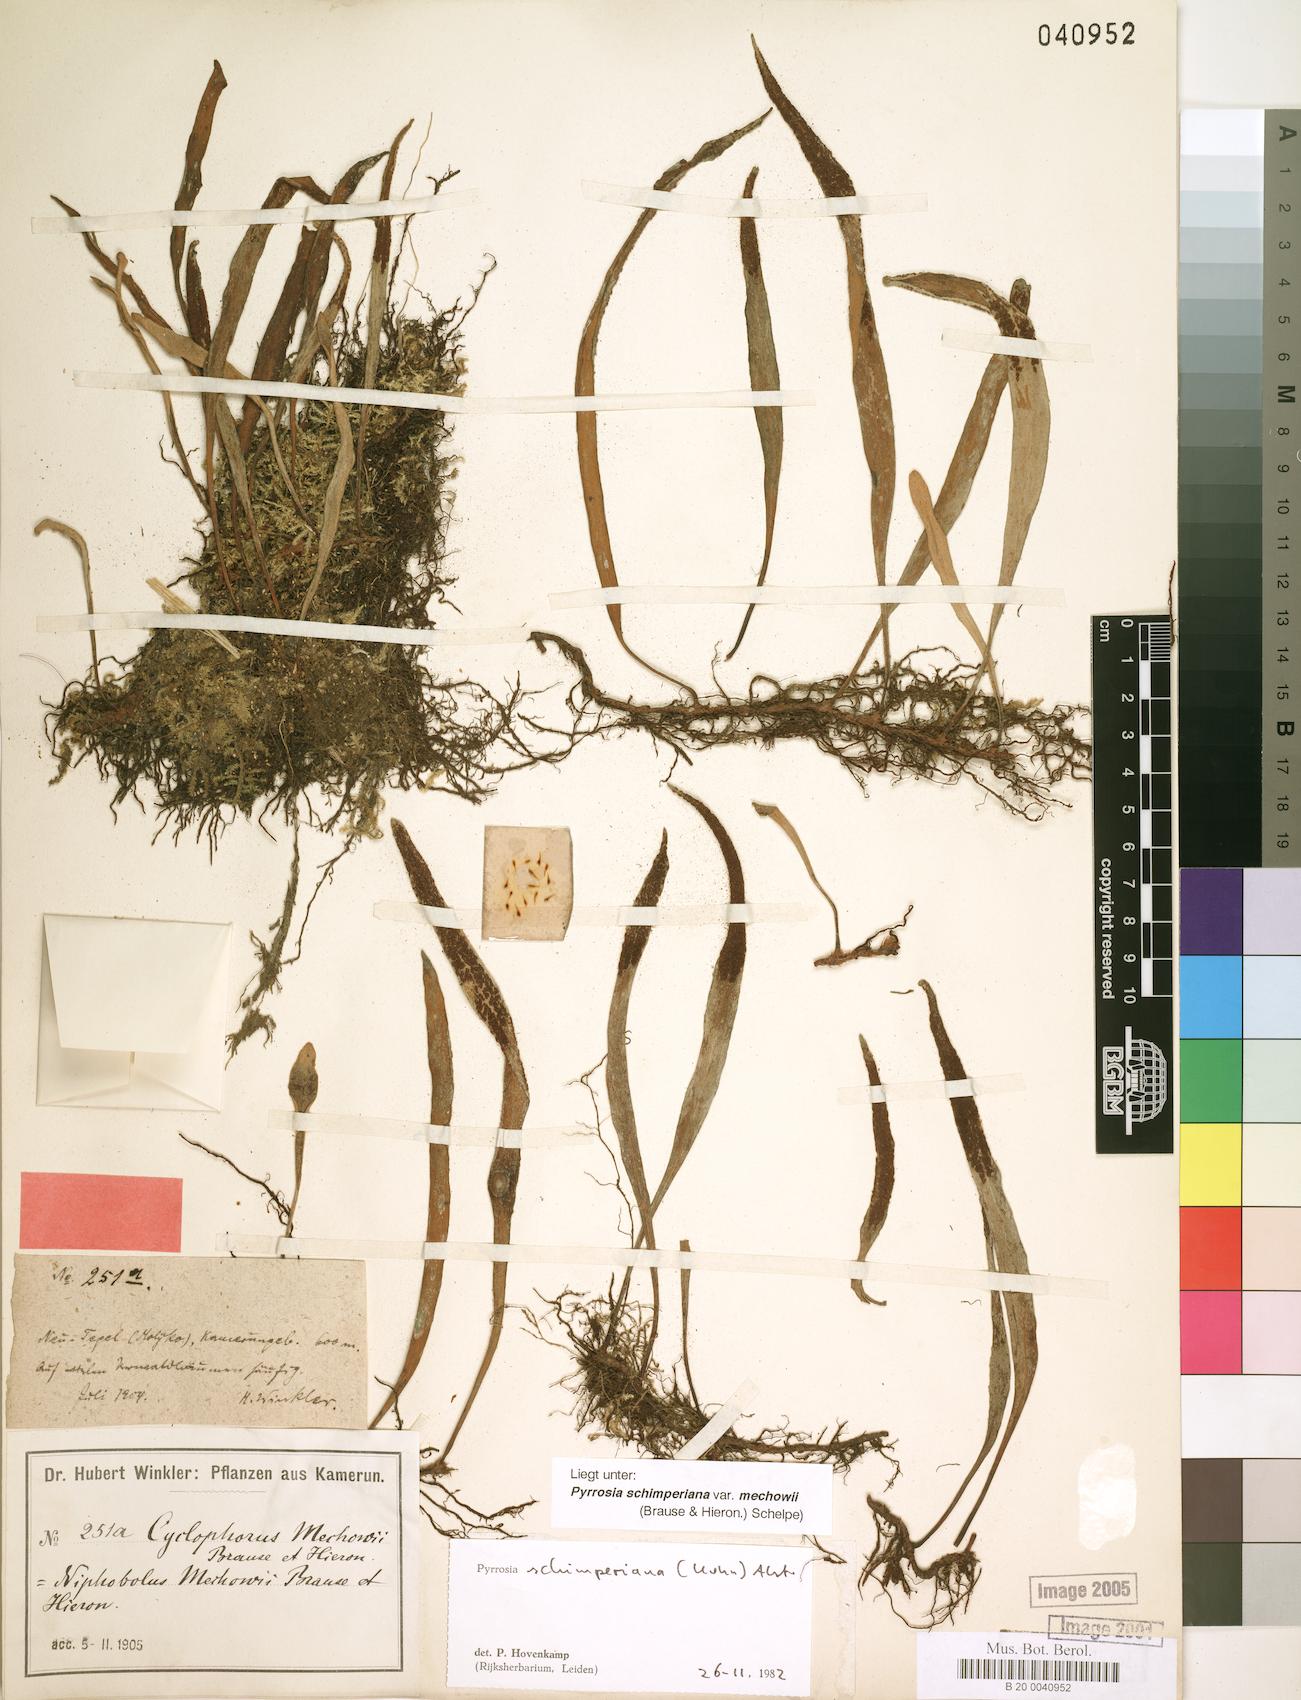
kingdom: Plantae
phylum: Tracheophyta
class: Polypodiopsida
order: Polypodiales
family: Polypodiaceae
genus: Hovenkampia
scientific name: Hovenkampia schimperiana
